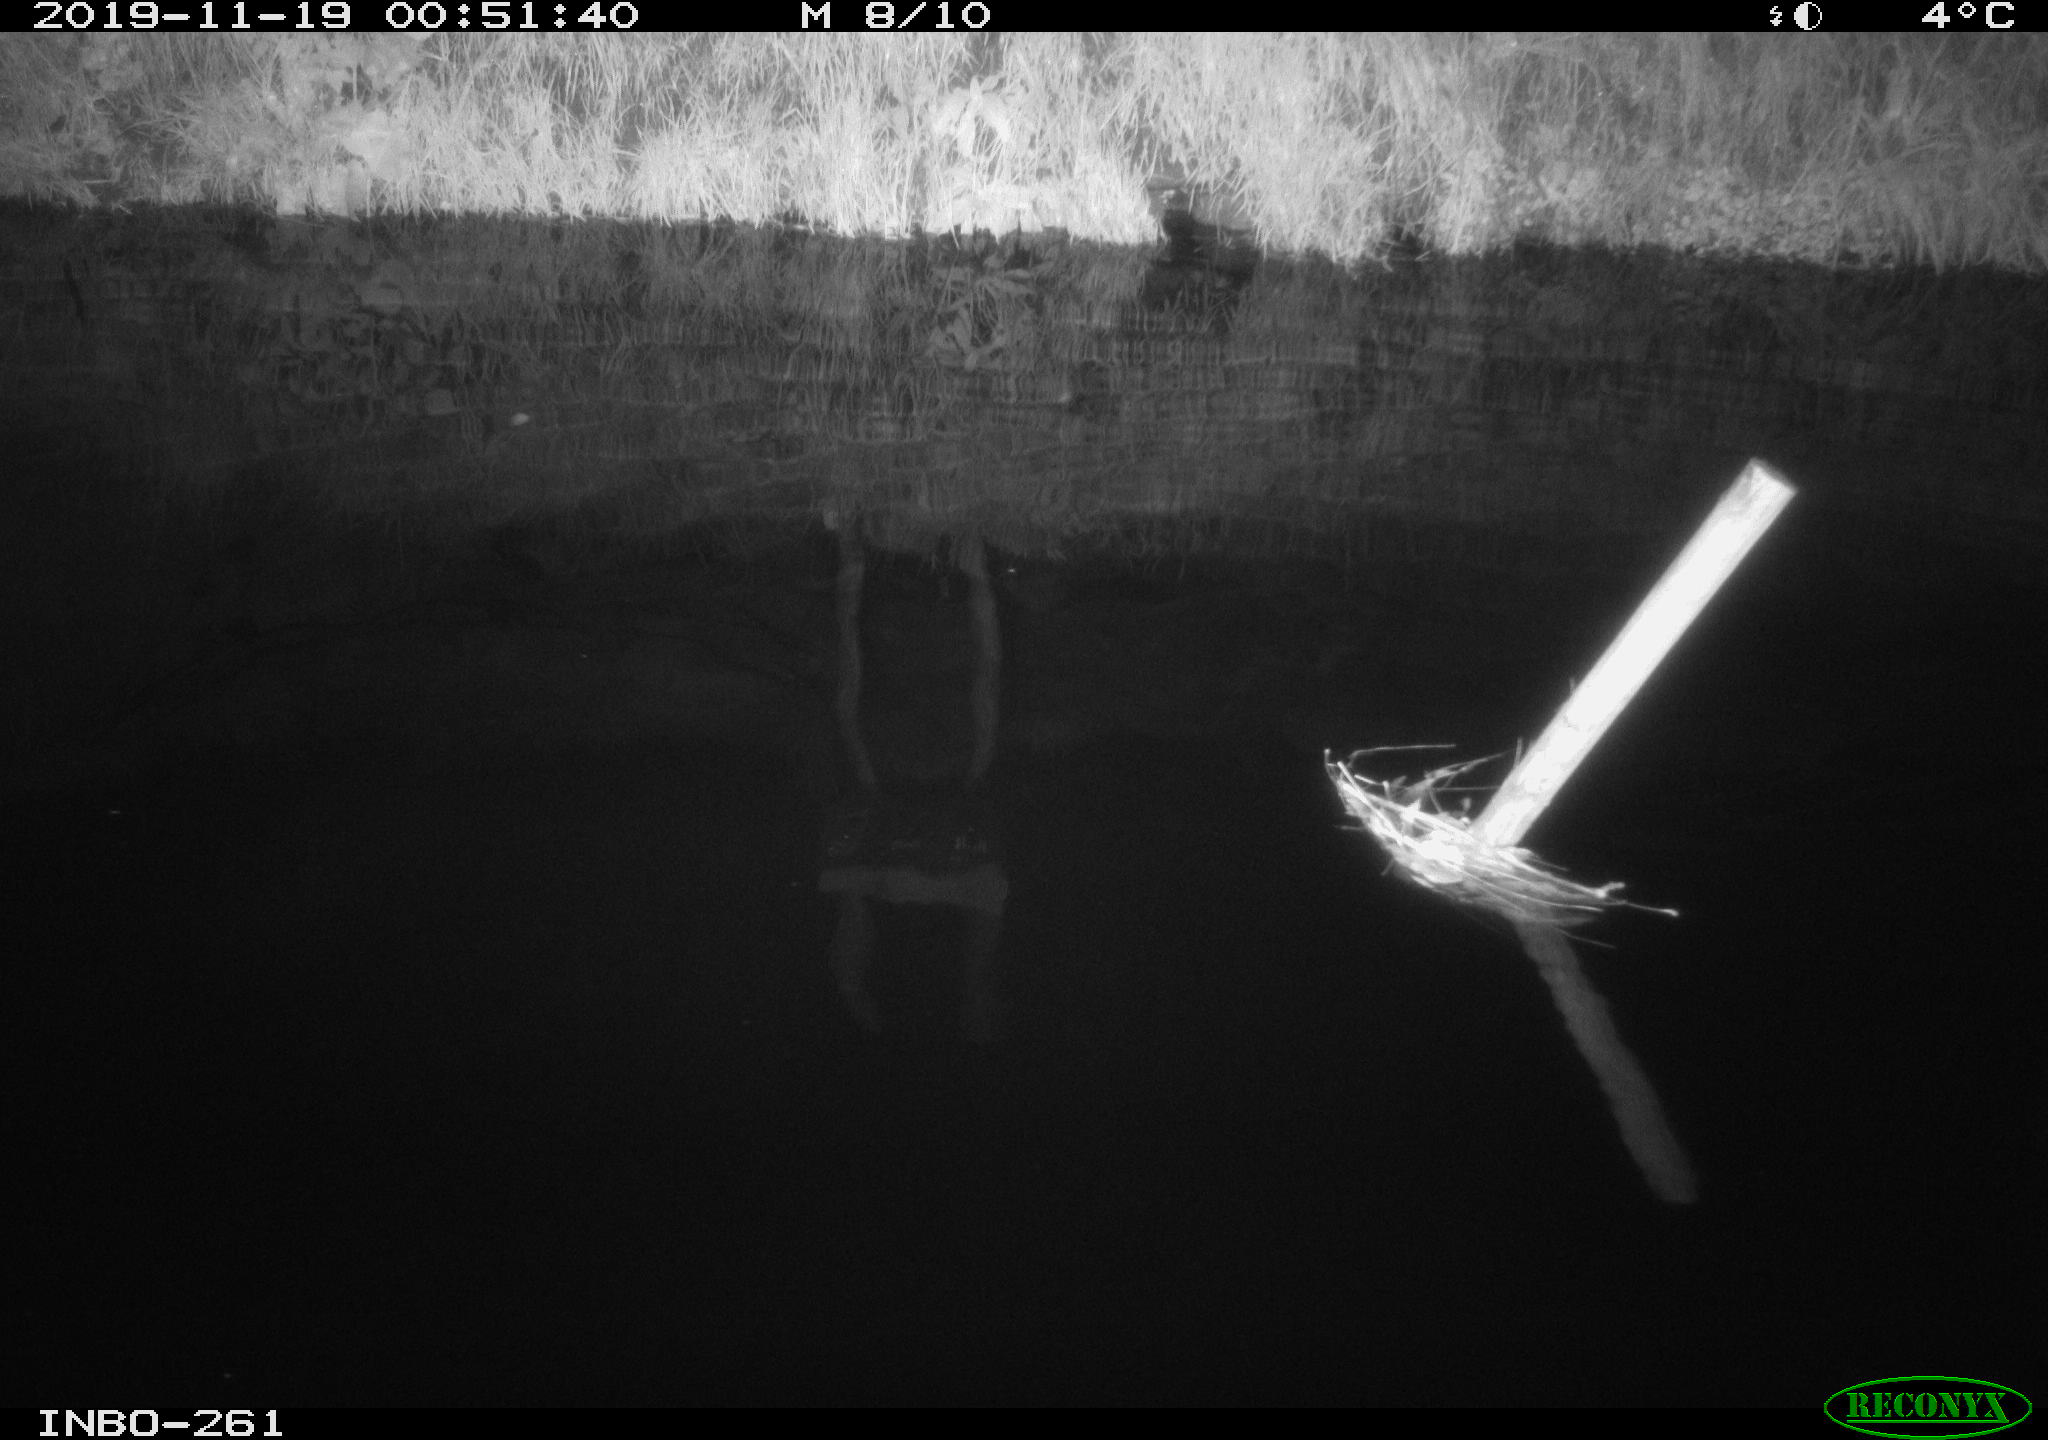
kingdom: Animalia
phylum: Chordata
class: Aves
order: Anseriformes
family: Anatidae
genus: Anas
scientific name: Anas platyrhynchos
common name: Mallard
